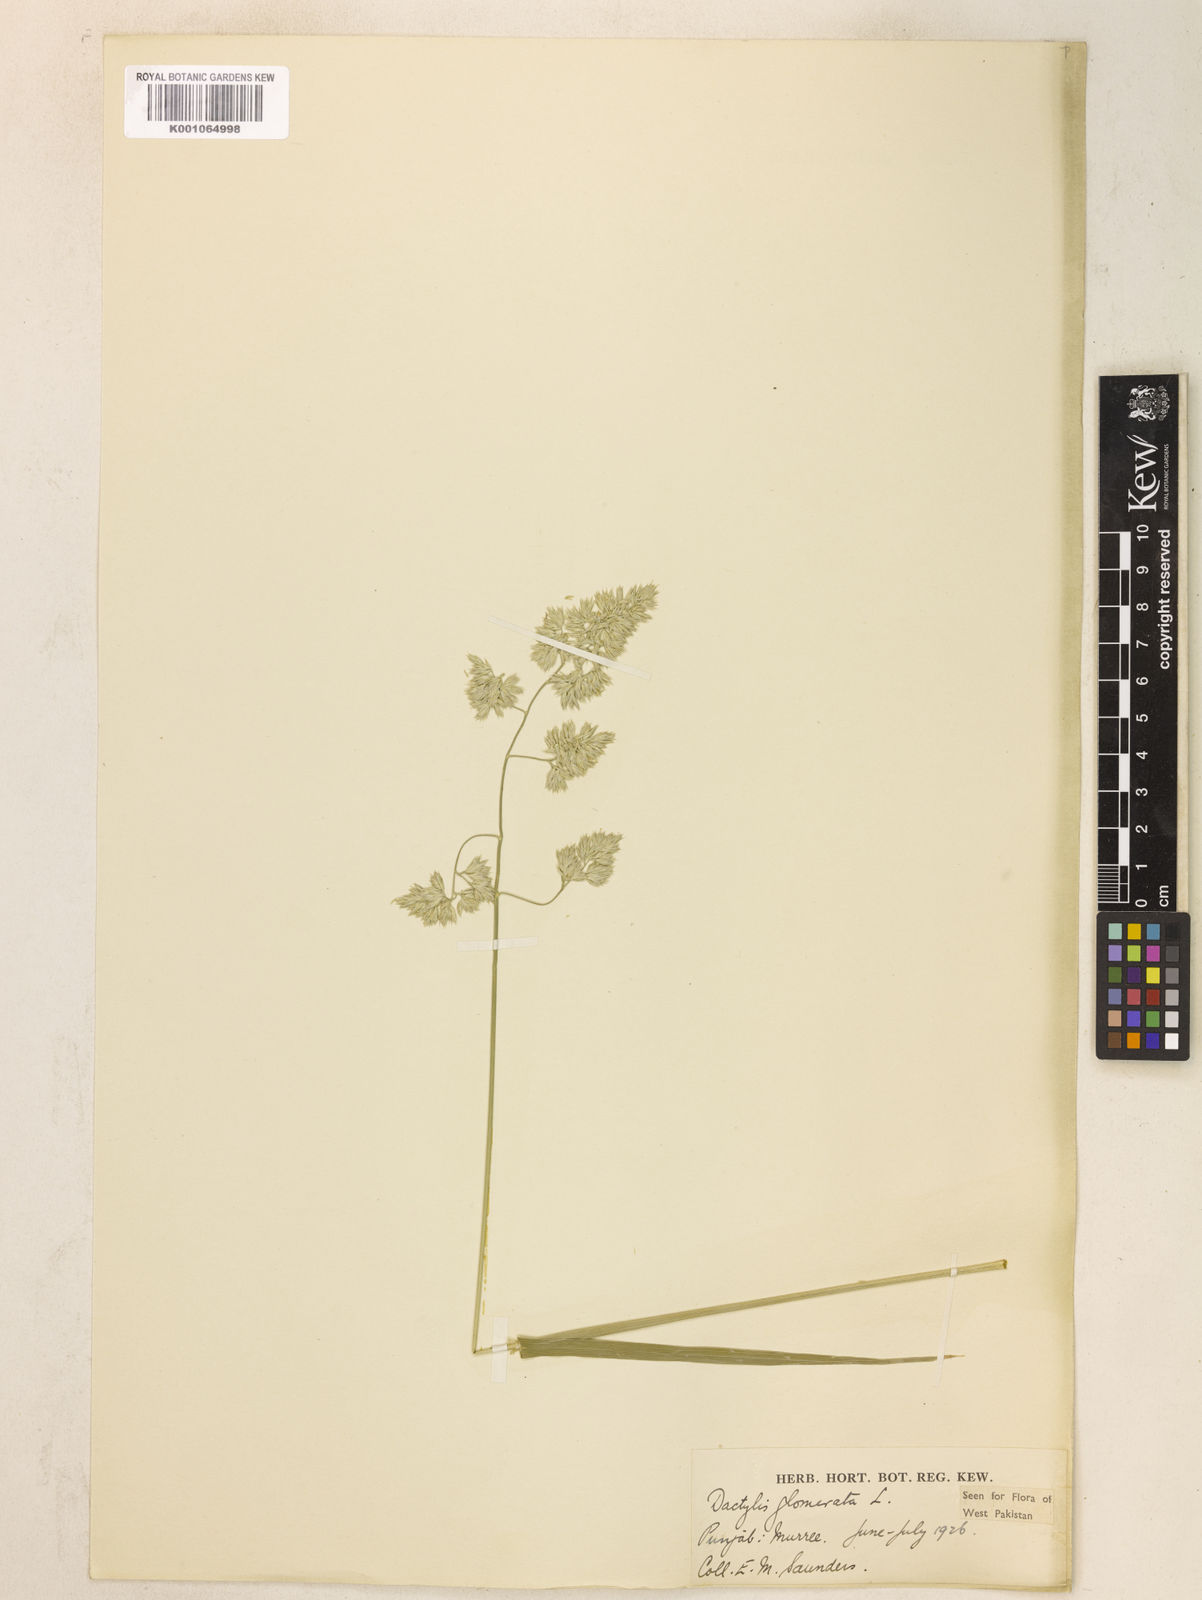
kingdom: Plantae
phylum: Tracheophyta
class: Liliopsida
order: Poales
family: Poaceae
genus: Dactylis
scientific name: Dactylis glomerata
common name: Orchardgrass
